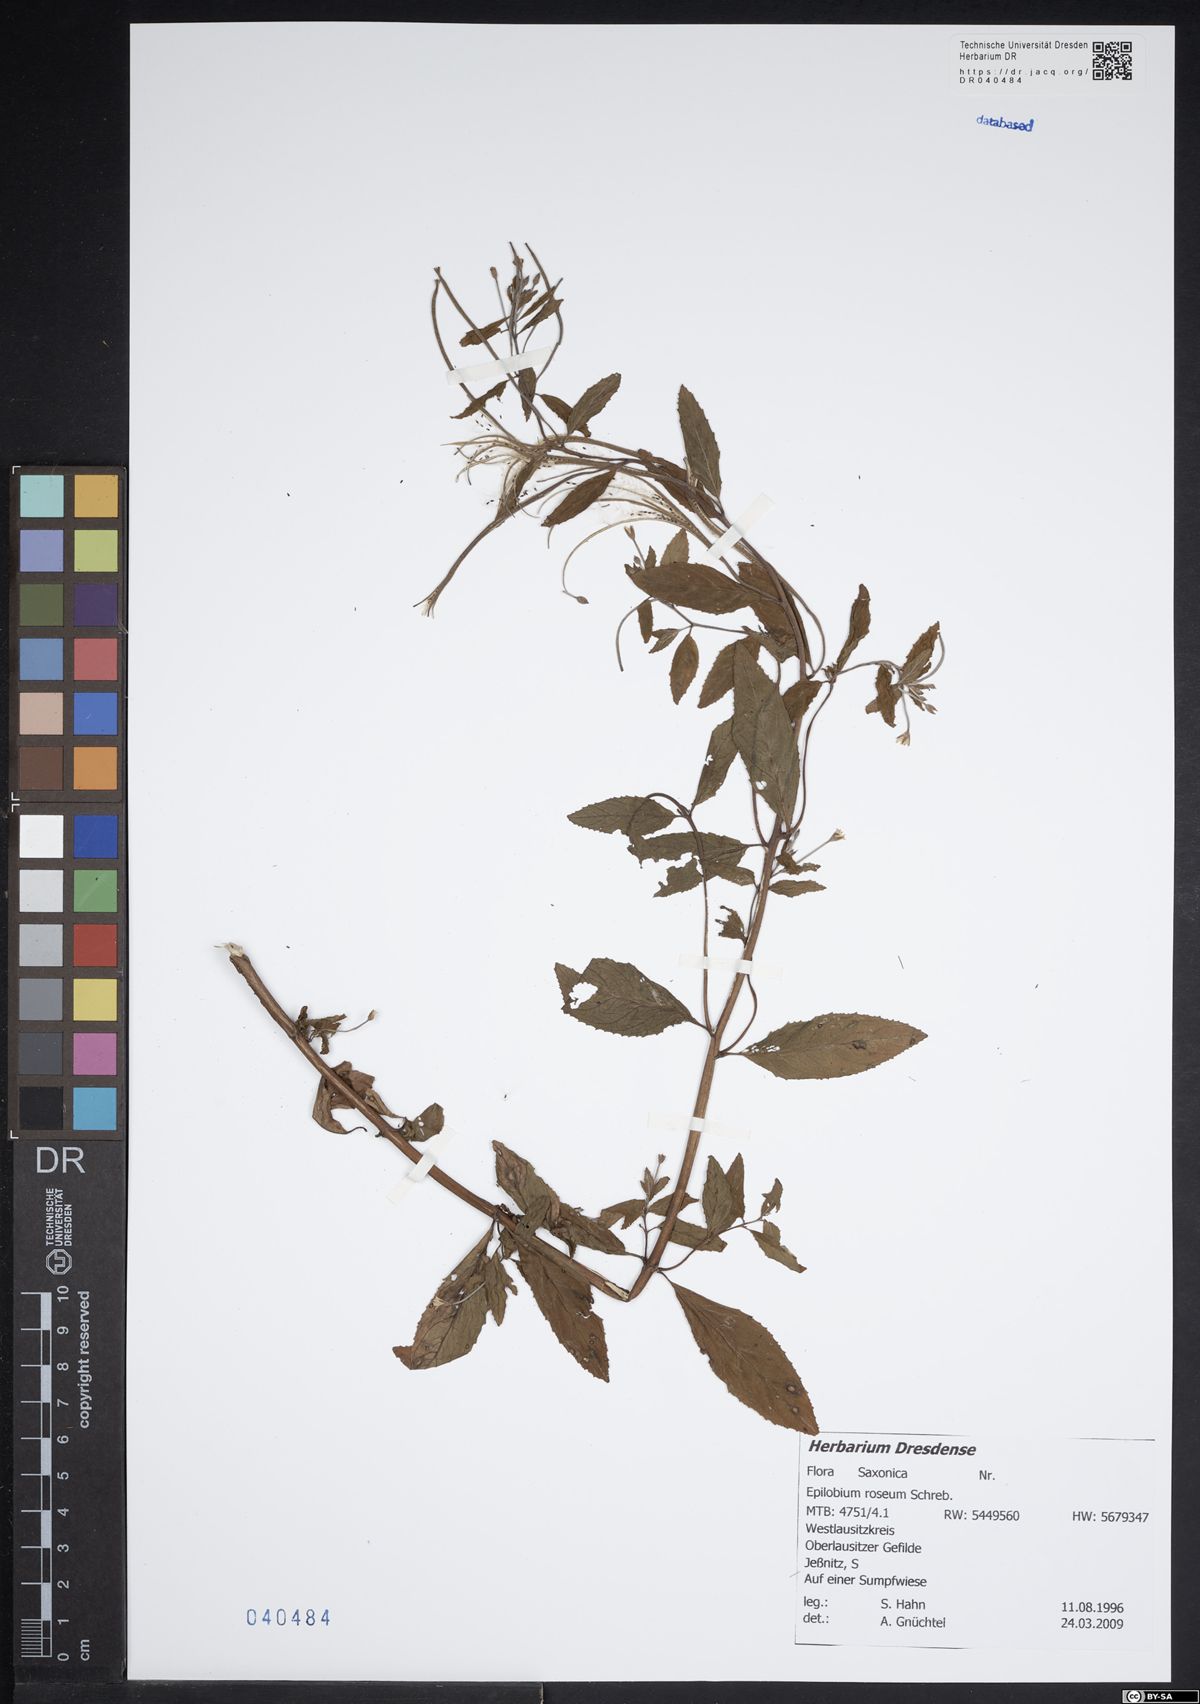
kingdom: Plantae
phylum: Tracheophyta
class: Magnoliopsida
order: Myrtales
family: Onagraceae
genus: Epilobium
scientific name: Epilobium roseum
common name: Pale willowherb
